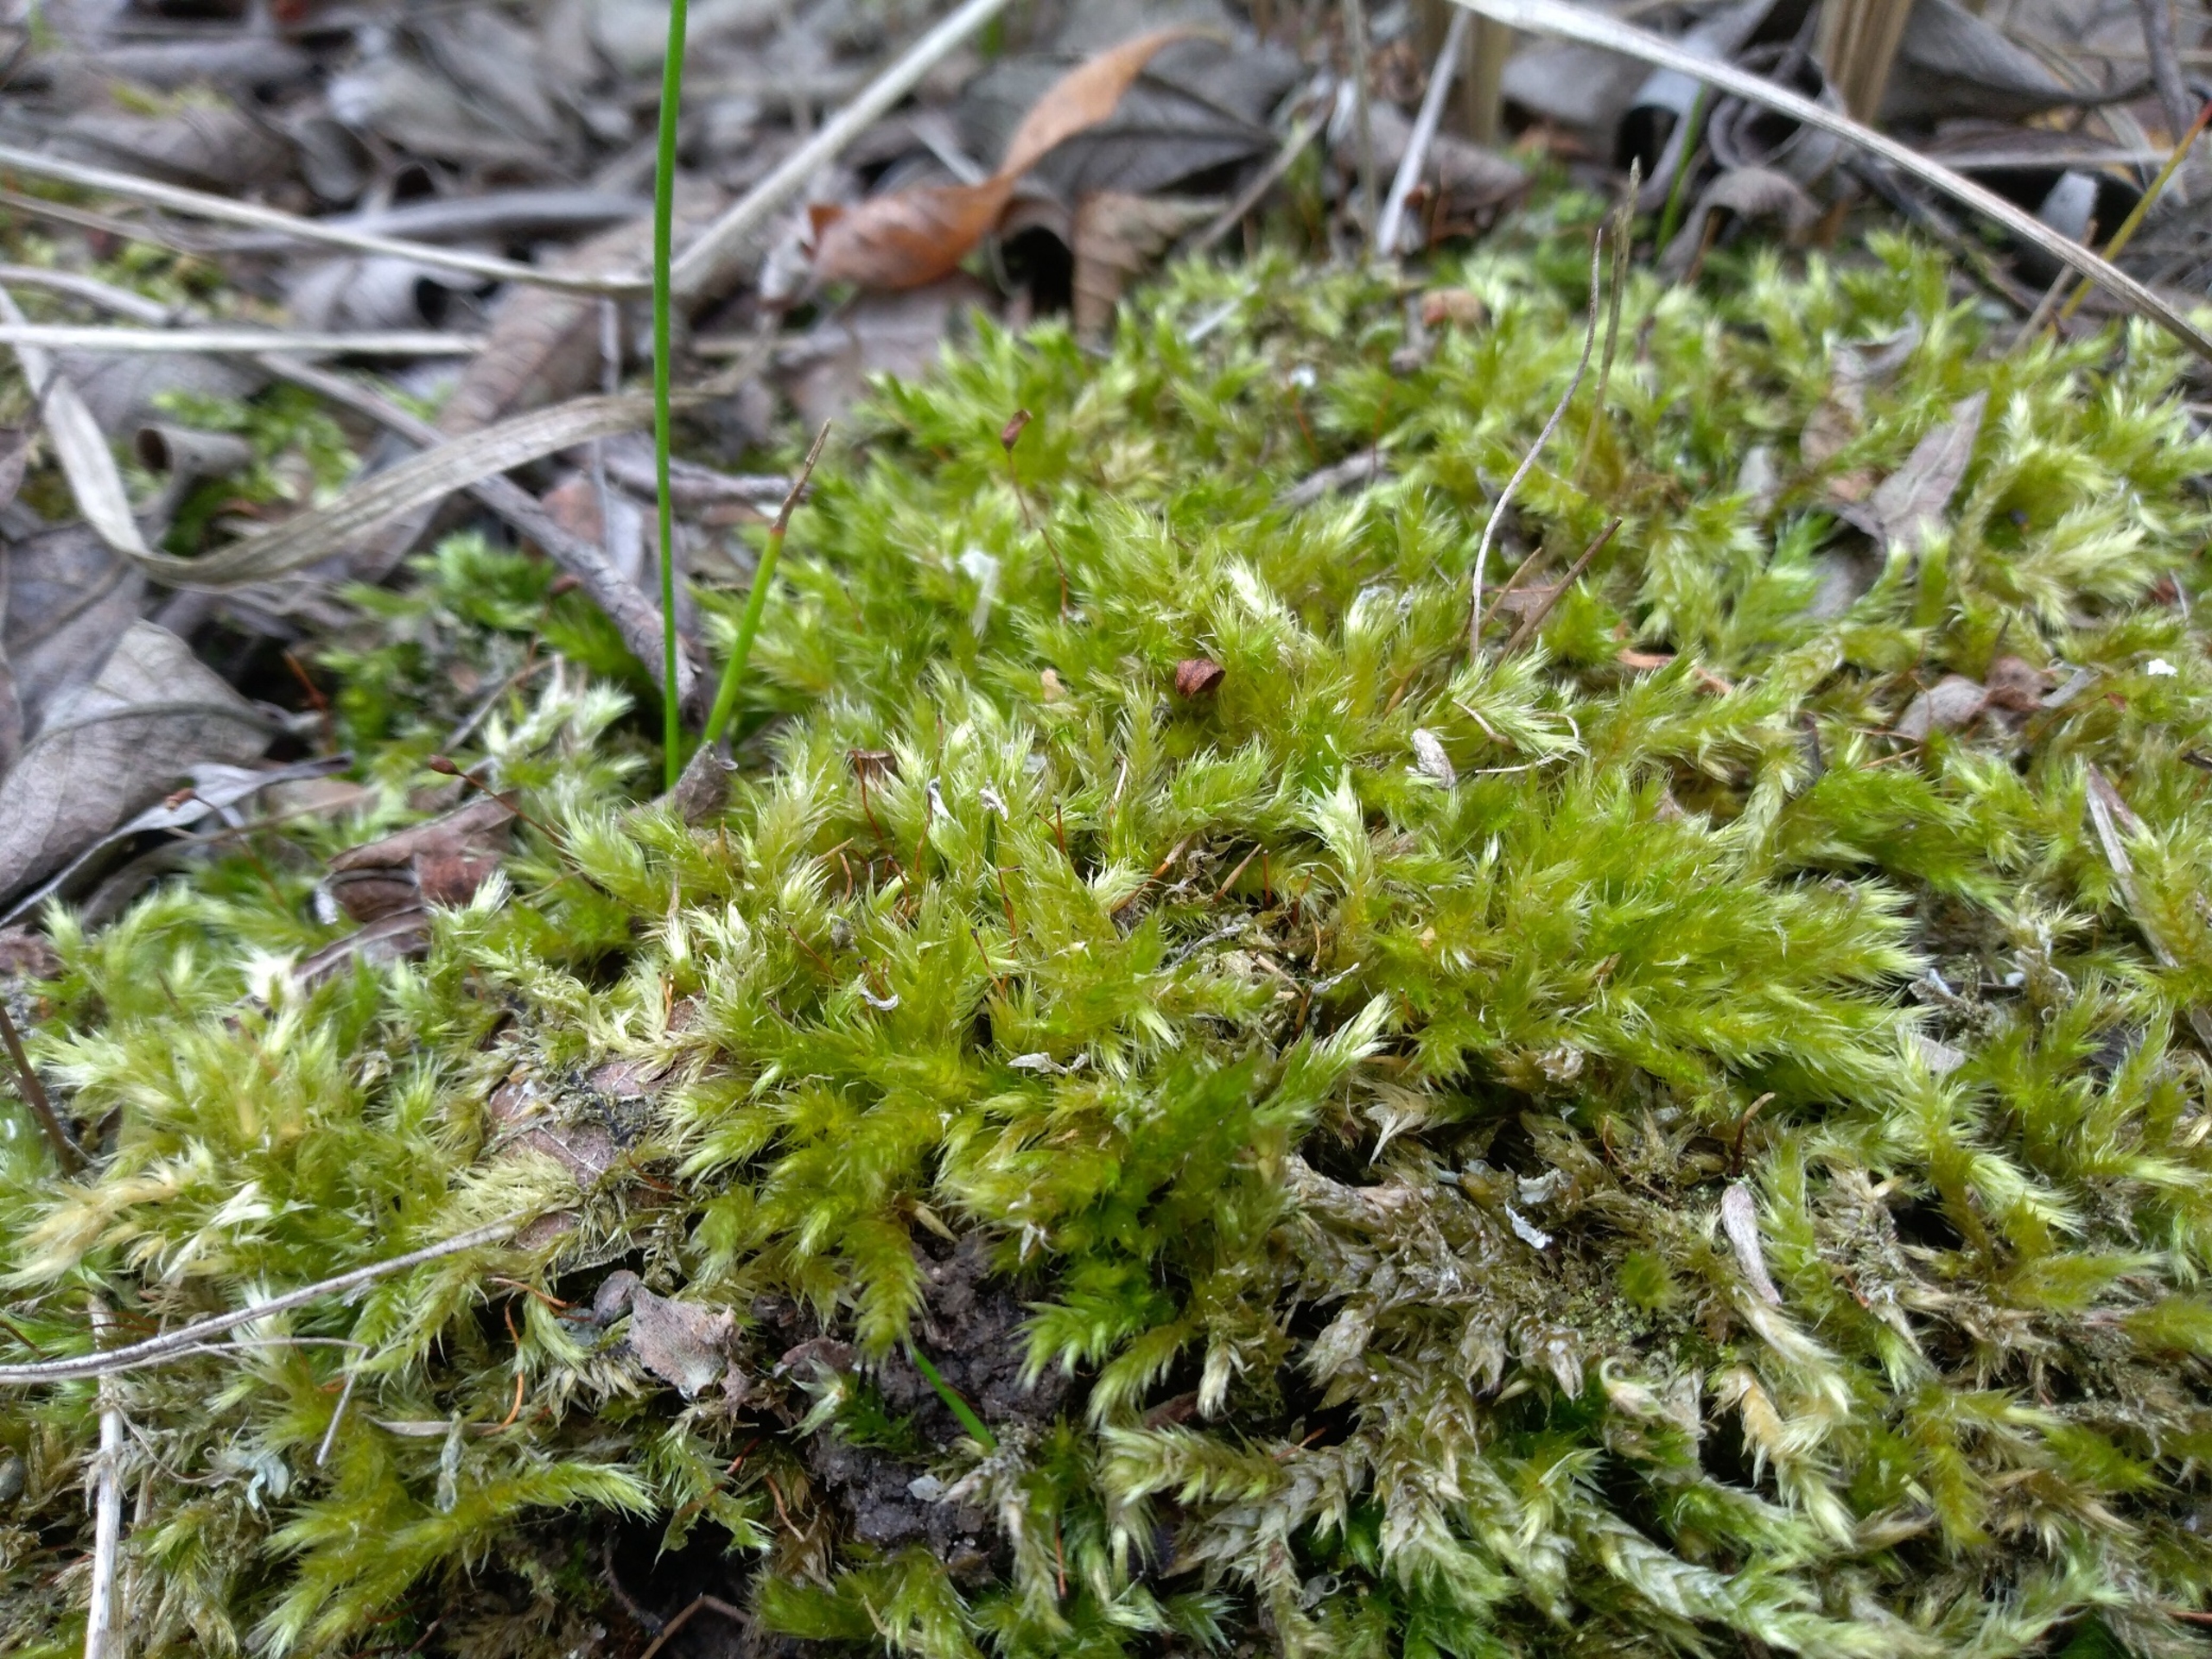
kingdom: Plantae
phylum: Bryophyta
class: Bryopsida
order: Hypnales
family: Brachytheciaceae
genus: Brachythecium
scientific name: Brachythecium salebrosum
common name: Skov-kortkapsel
